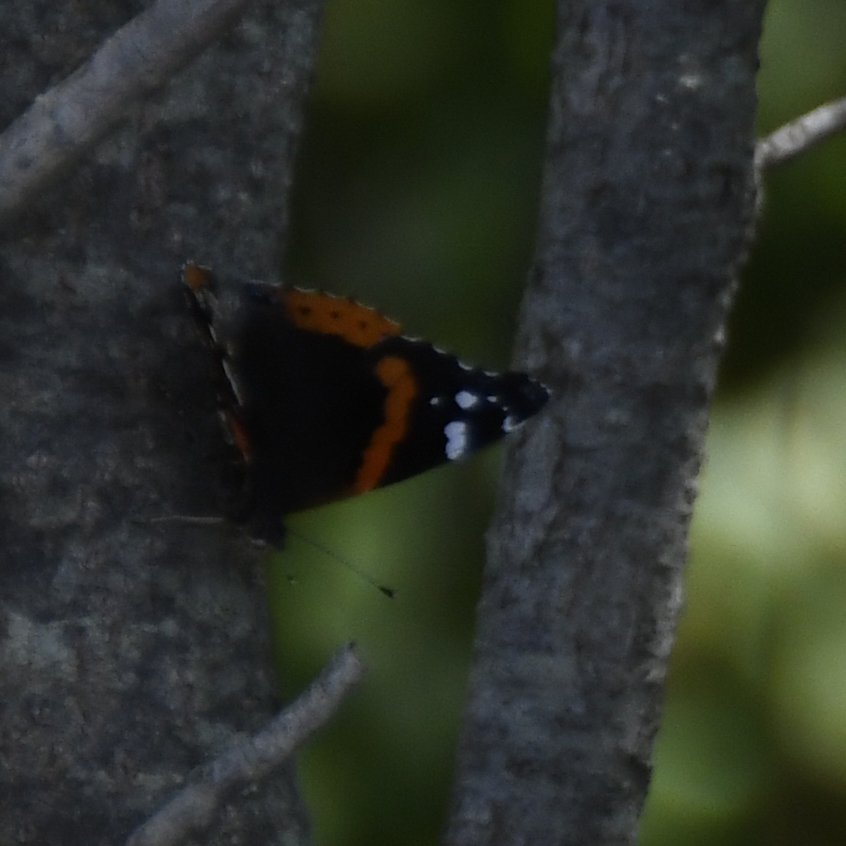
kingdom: Animalia
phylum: Arthropoda
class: Insecta
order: Lepidoptera
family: Nymphalidae
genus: Vanessa
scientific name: Vanessa atalanta
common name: Red Admiral
